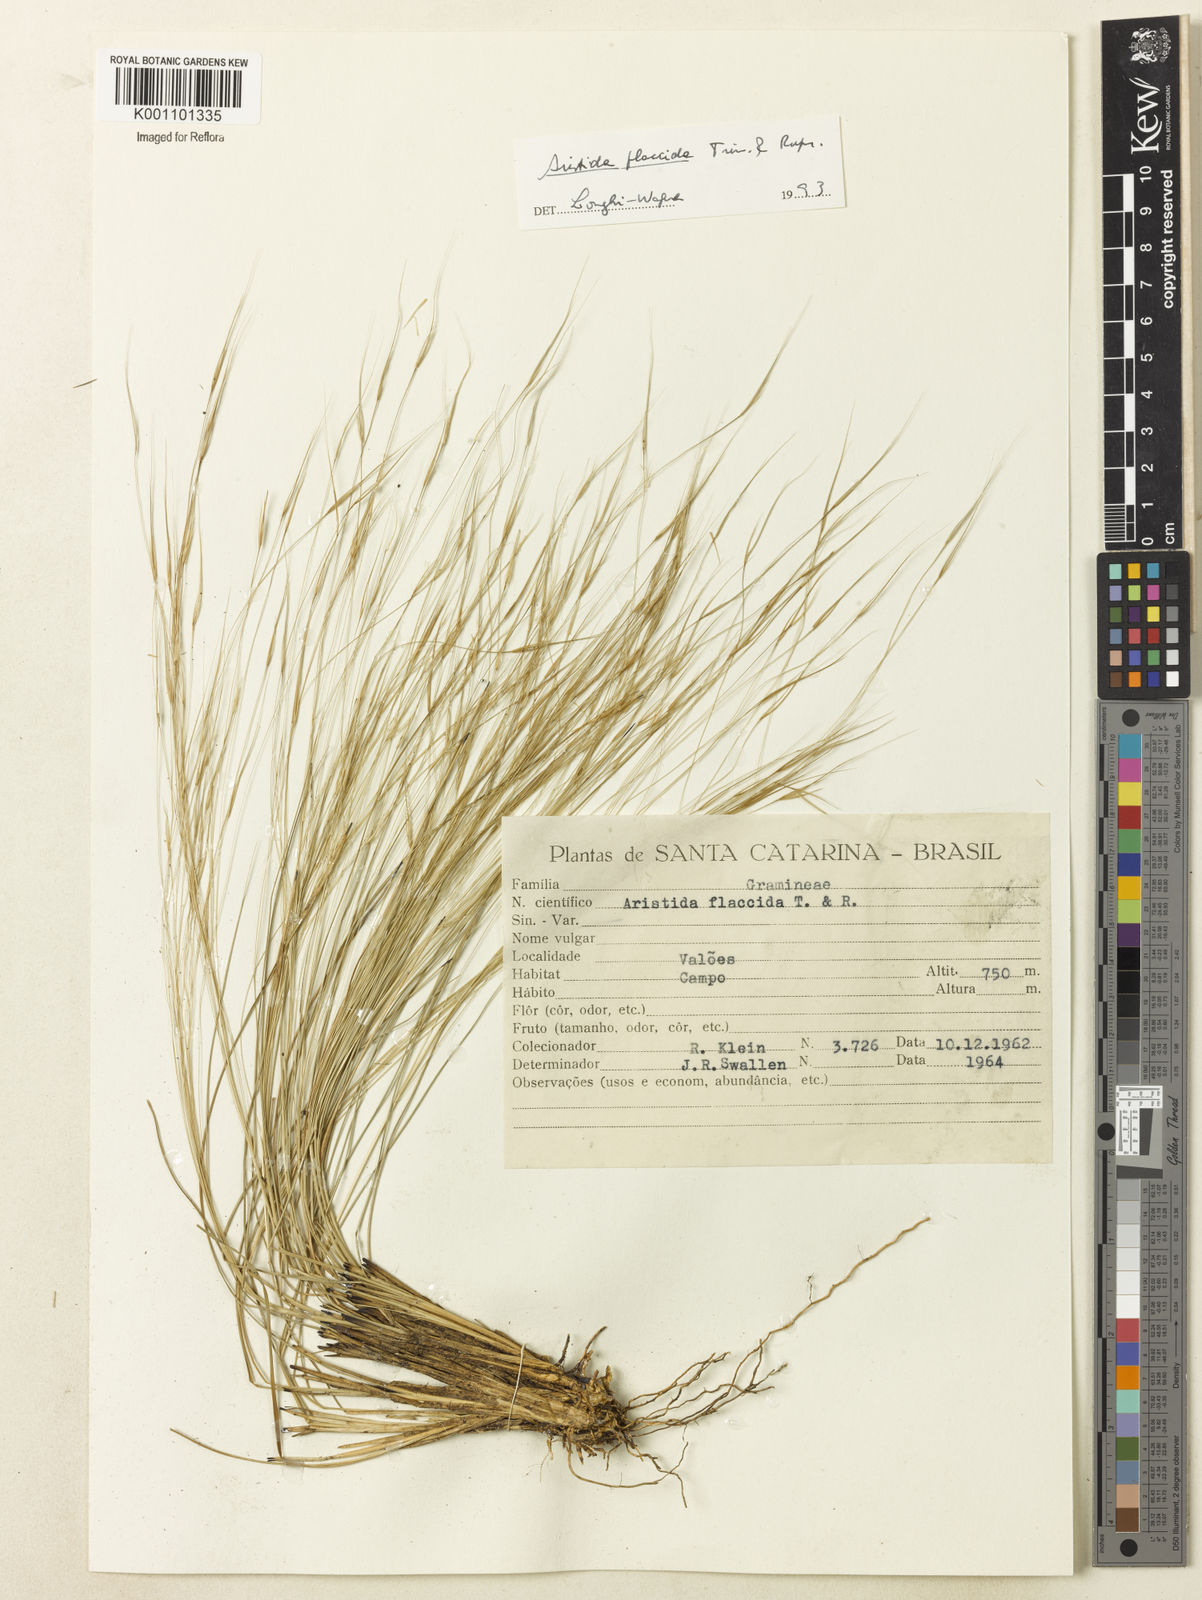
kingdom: Plantae
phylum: Tracheophyta
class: Liliopsida
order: Poales
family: Poaceae
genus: Aristida
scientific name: Aristida flaccida
